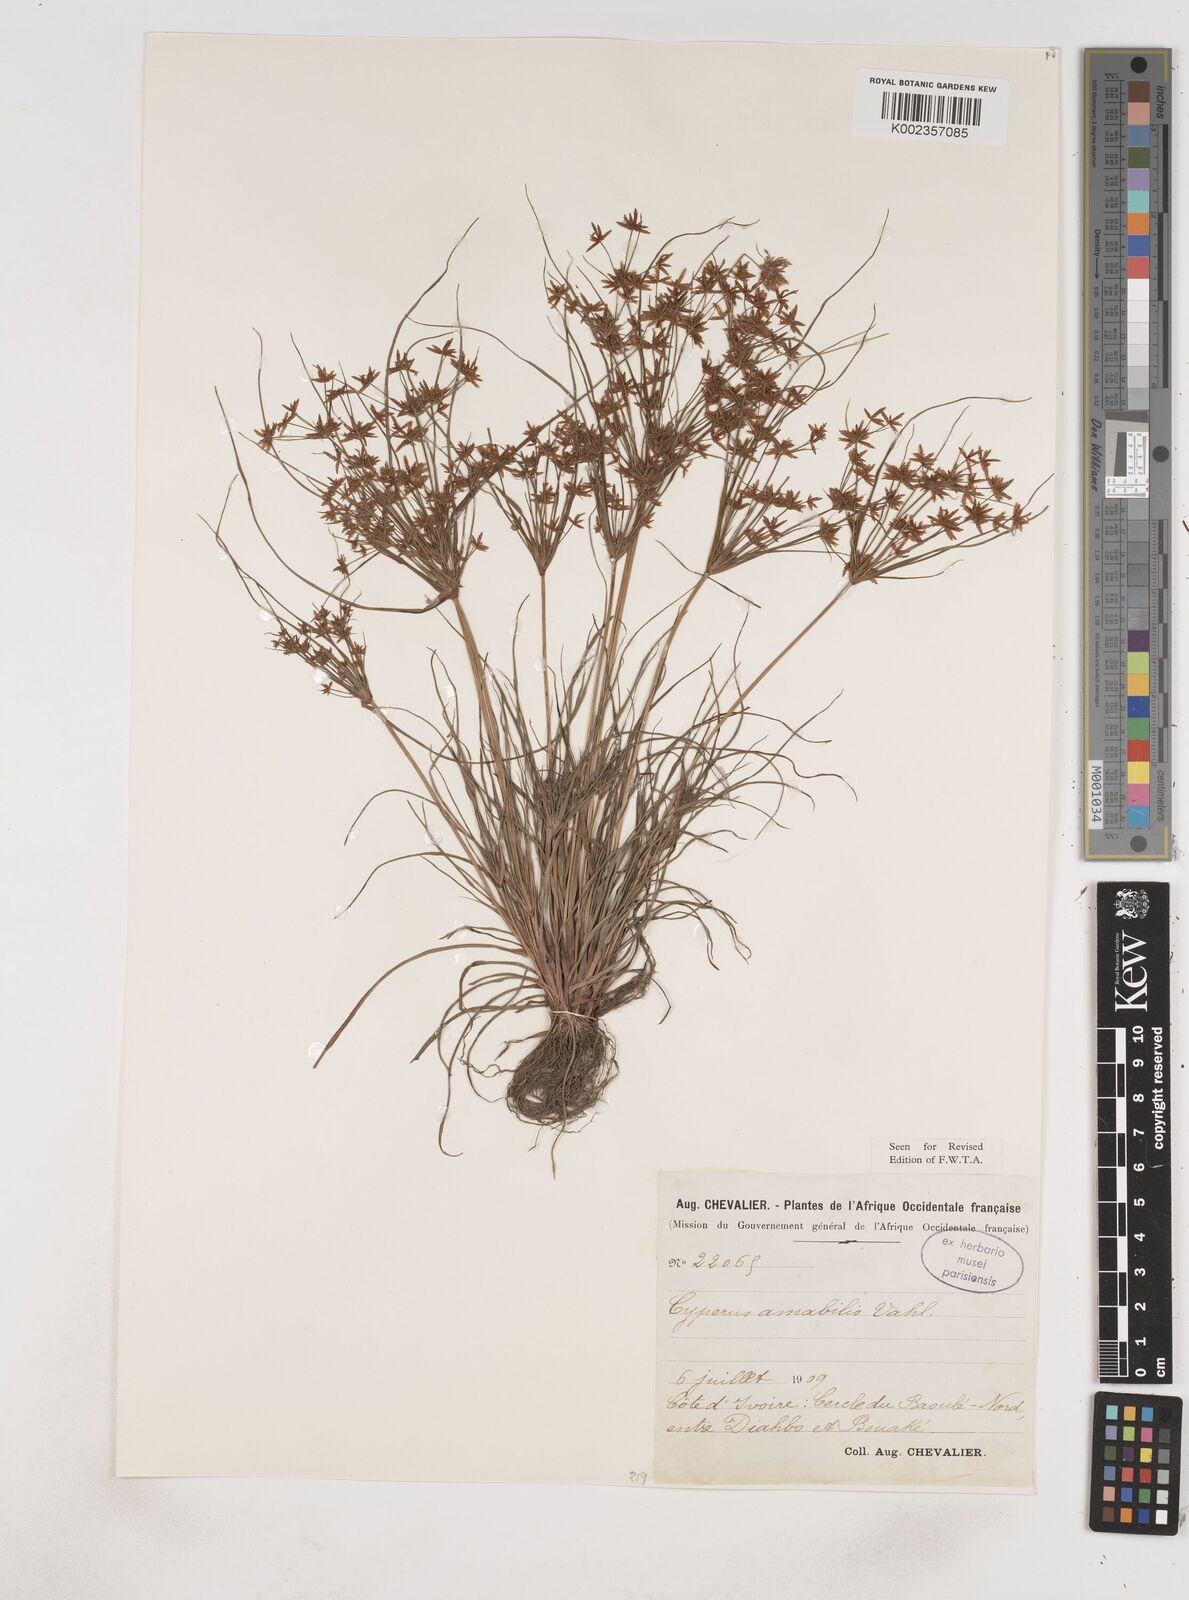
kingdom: Plantae
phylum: Tracheophyta
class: Liliopsida
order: Poales
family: Cyperaceae
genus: Cyperus
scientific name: Cyperus amabilis
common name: Foothill flat sedge
